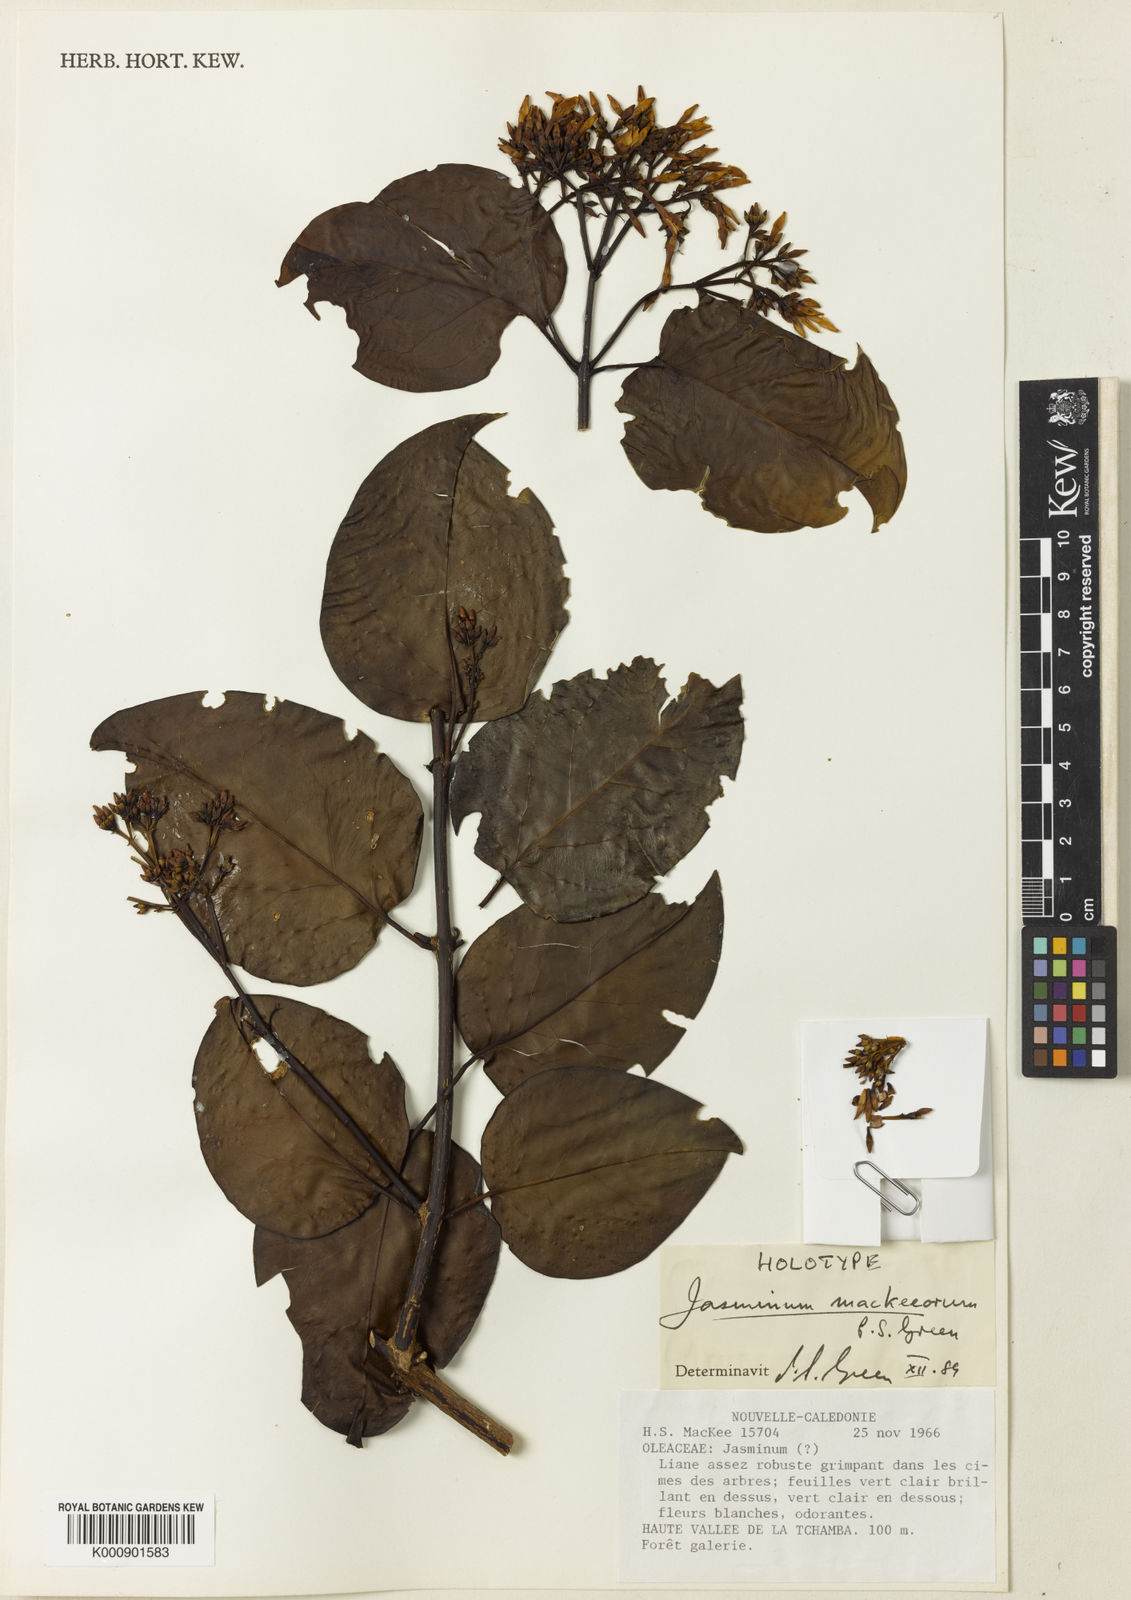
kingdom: Plantae
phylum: Tracheophyta
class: Magnoliopsida
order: Lamiales
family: Oleaceae
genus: Jasminum
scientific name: Jasminum mackeeorum
